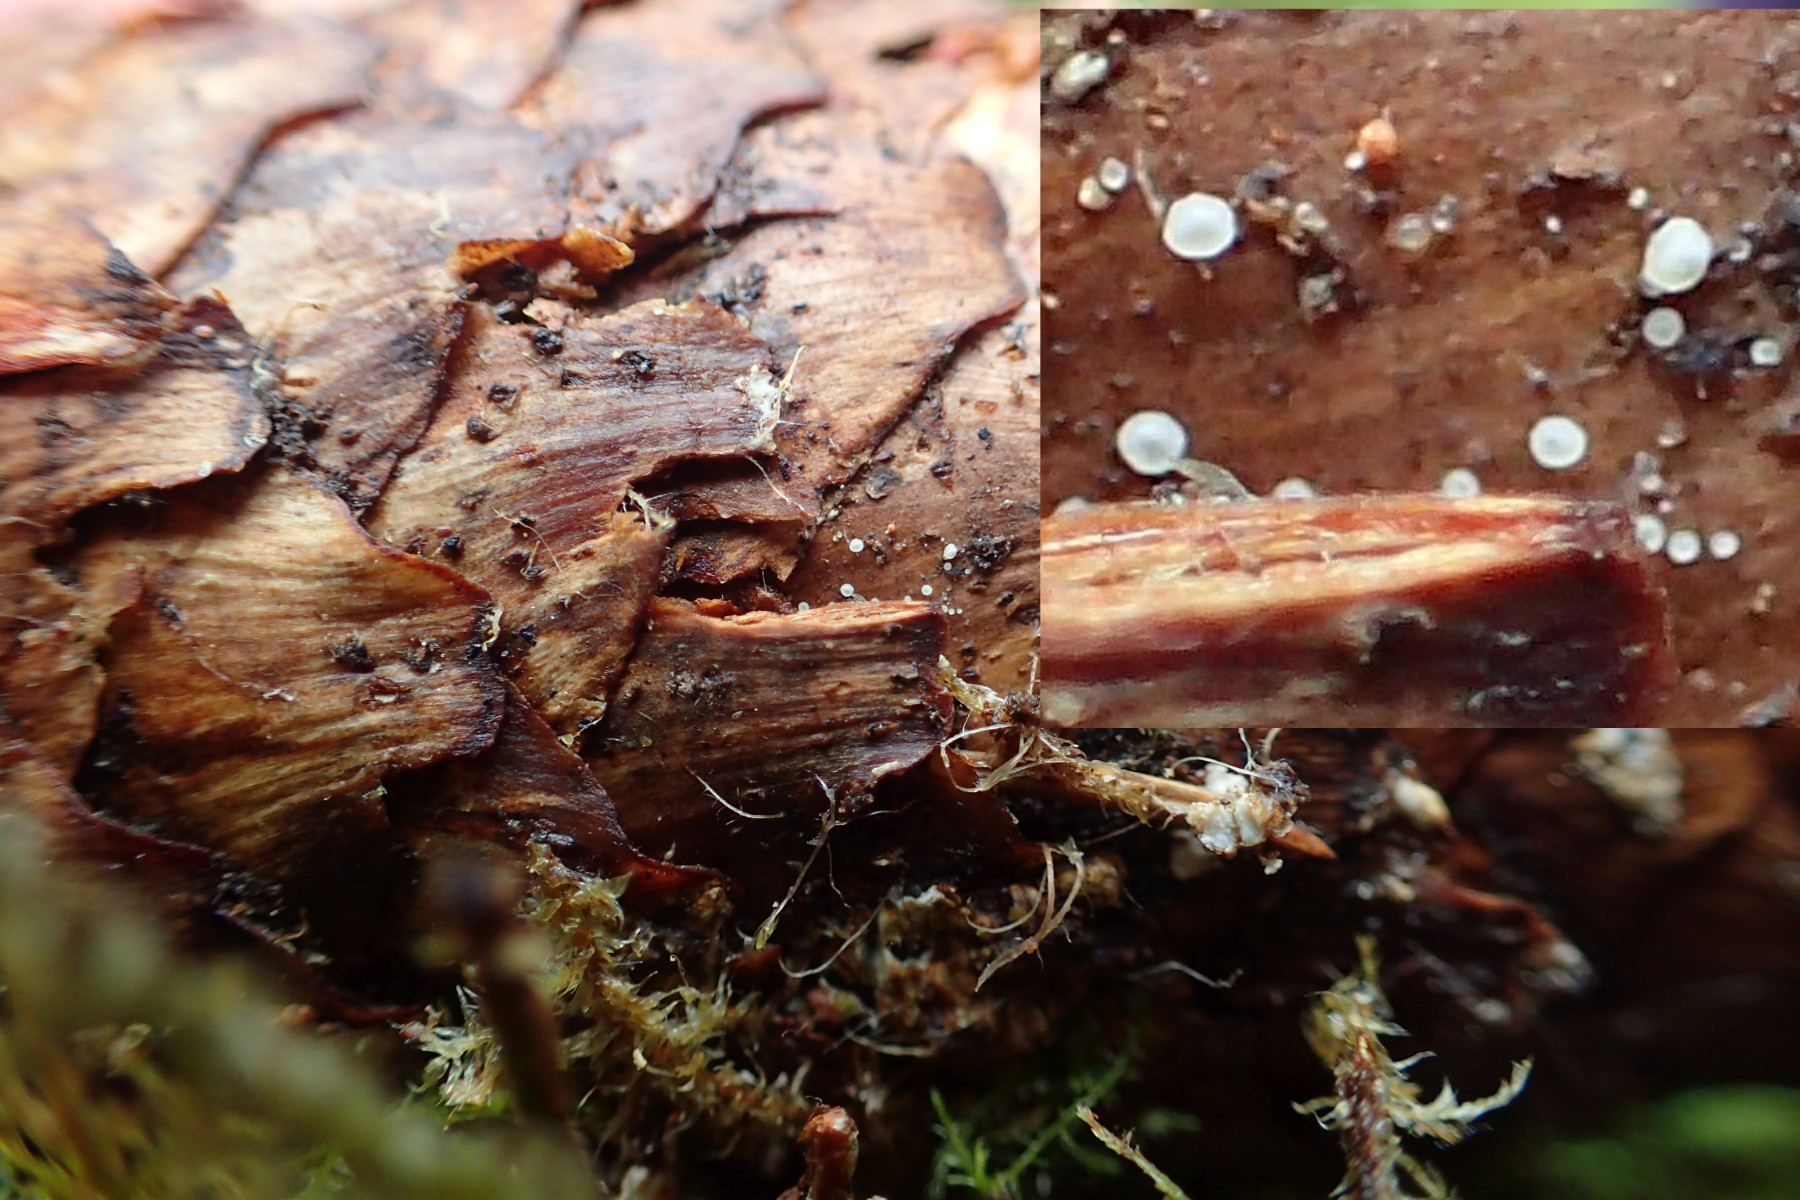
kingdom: Fungi
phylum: Ascomycota
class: Leotiomycetes
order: Helotiales
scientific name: Helotiales
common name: stilkskiveordenen
